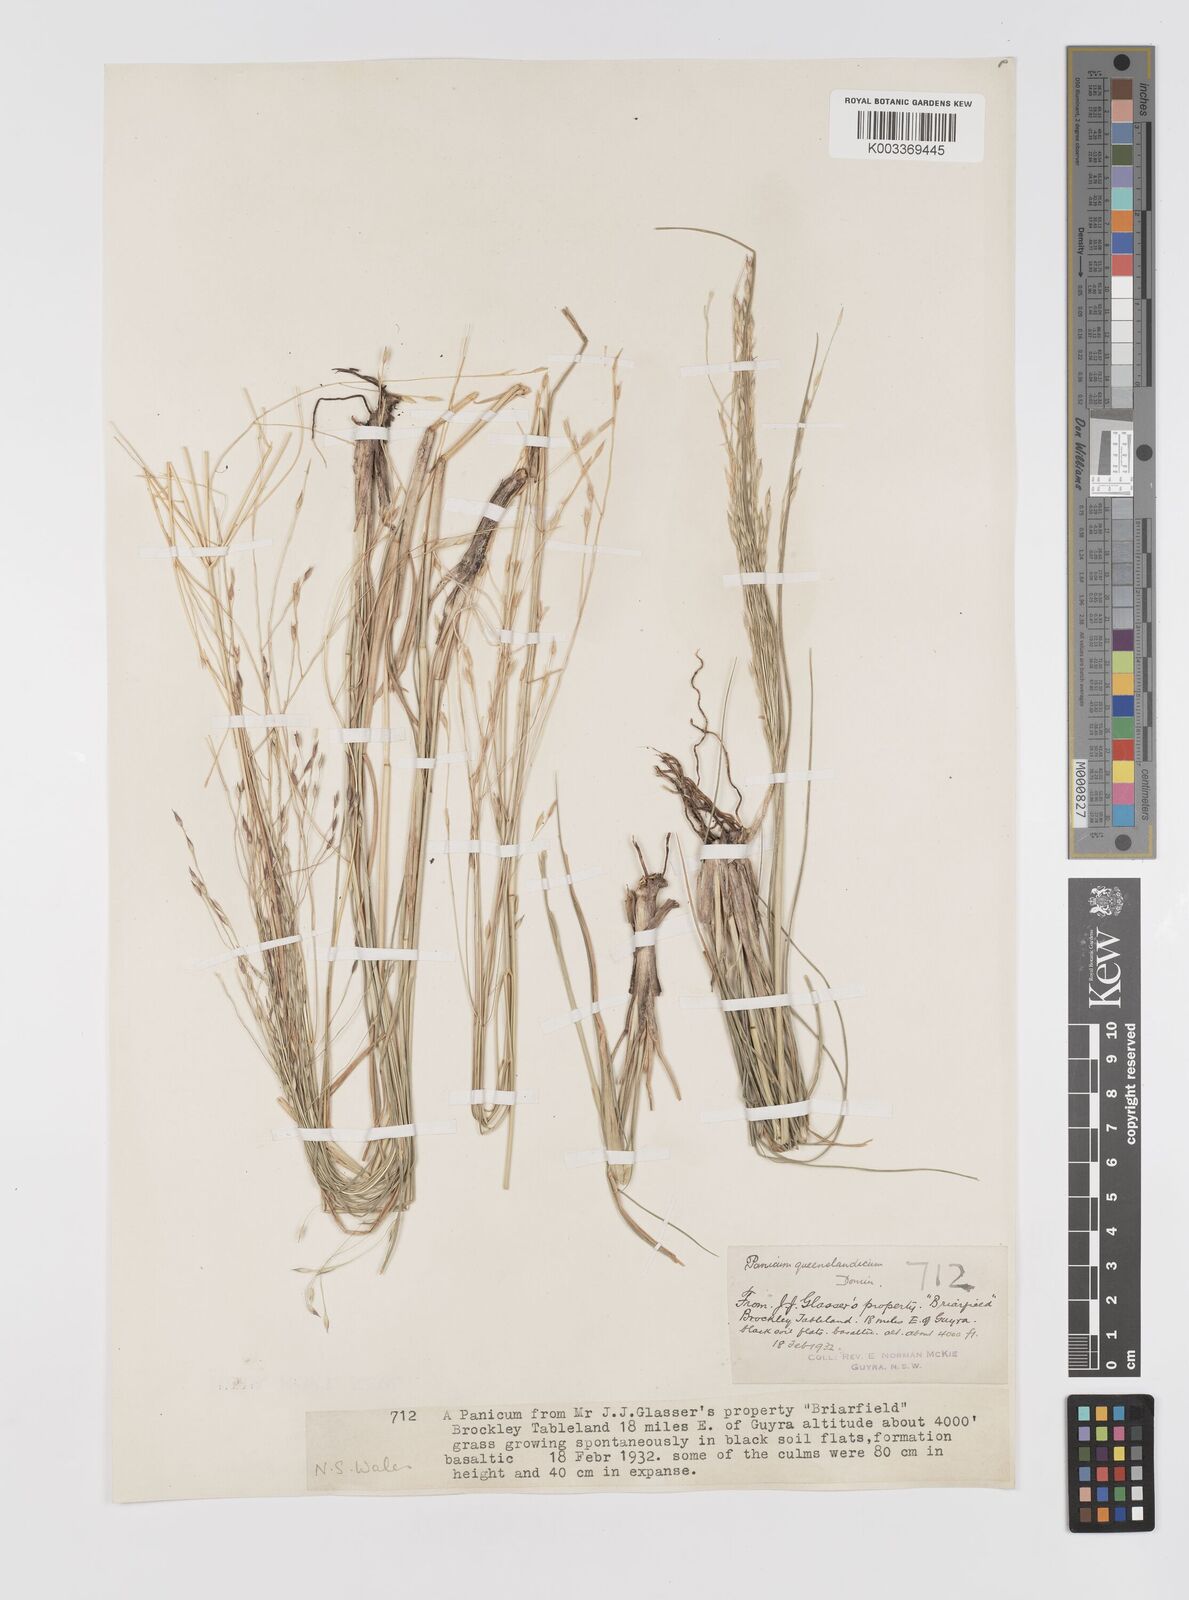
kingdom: Plantae
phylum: Tracheophyta
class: Liliopsida
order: Poales
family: Poaceae
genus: Panicum
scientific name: Panicum queenslandicum
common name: Yabila grass
